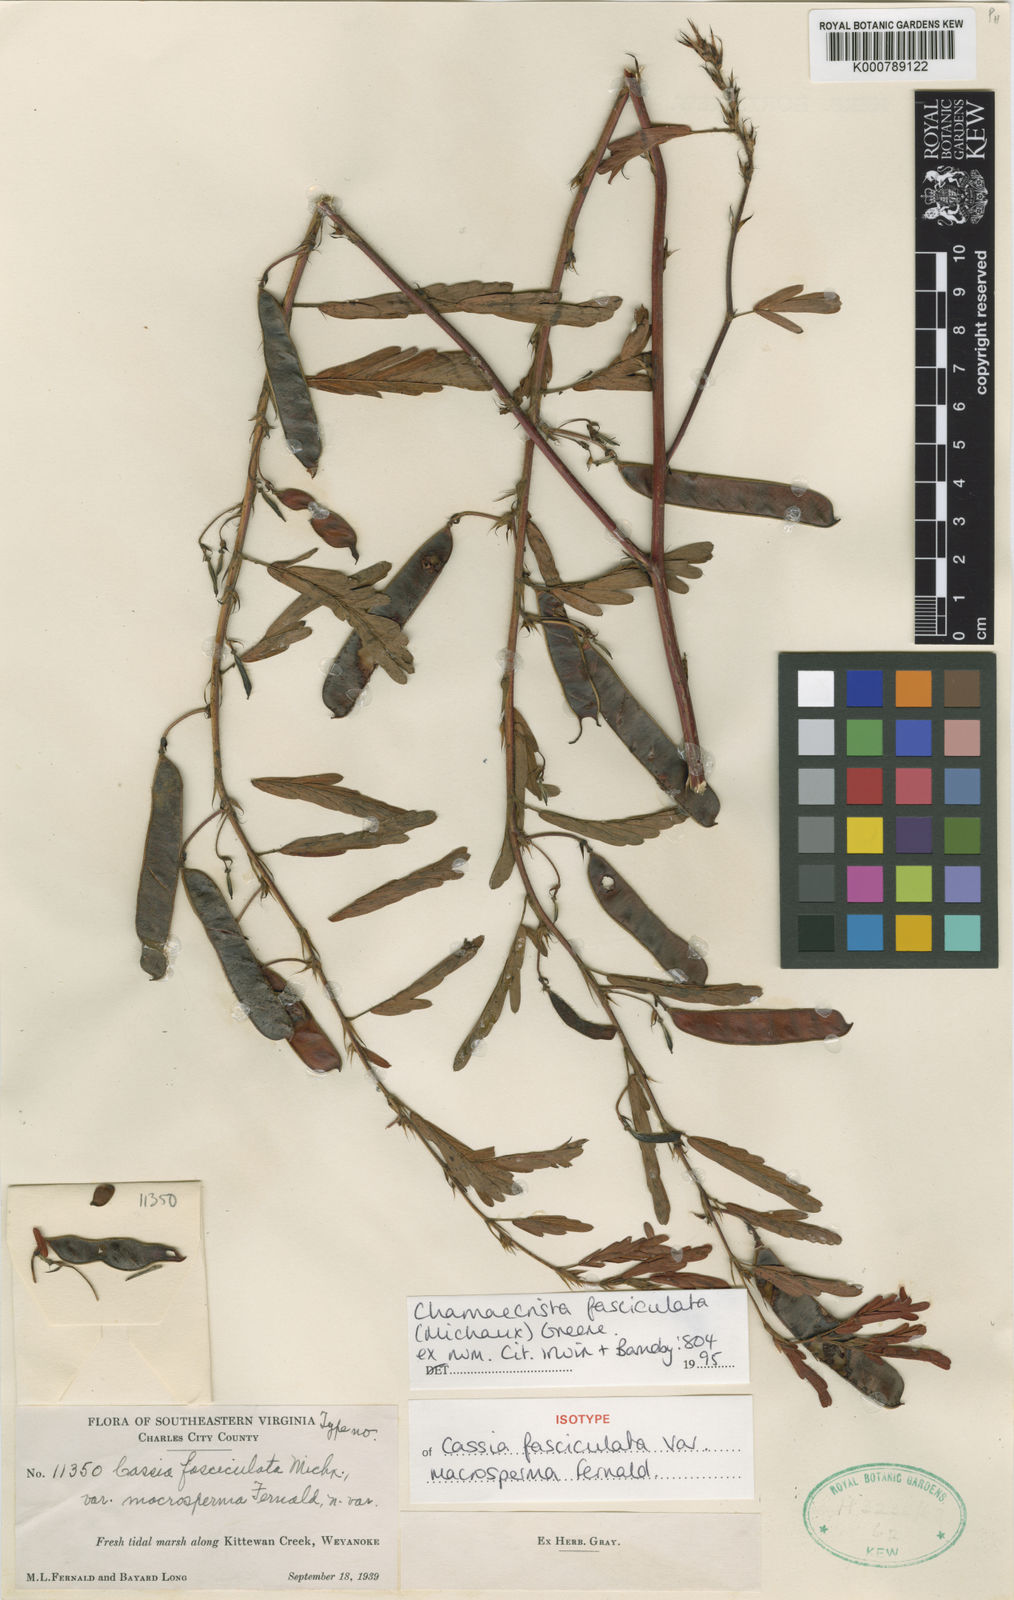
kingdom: Plantae
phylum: Tracheophyta
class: Magnoliopsida
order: Fabales
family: Fabaceae
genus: Chamaecrista
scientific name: Chamaecrista fasciculata
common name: Golden cassia
